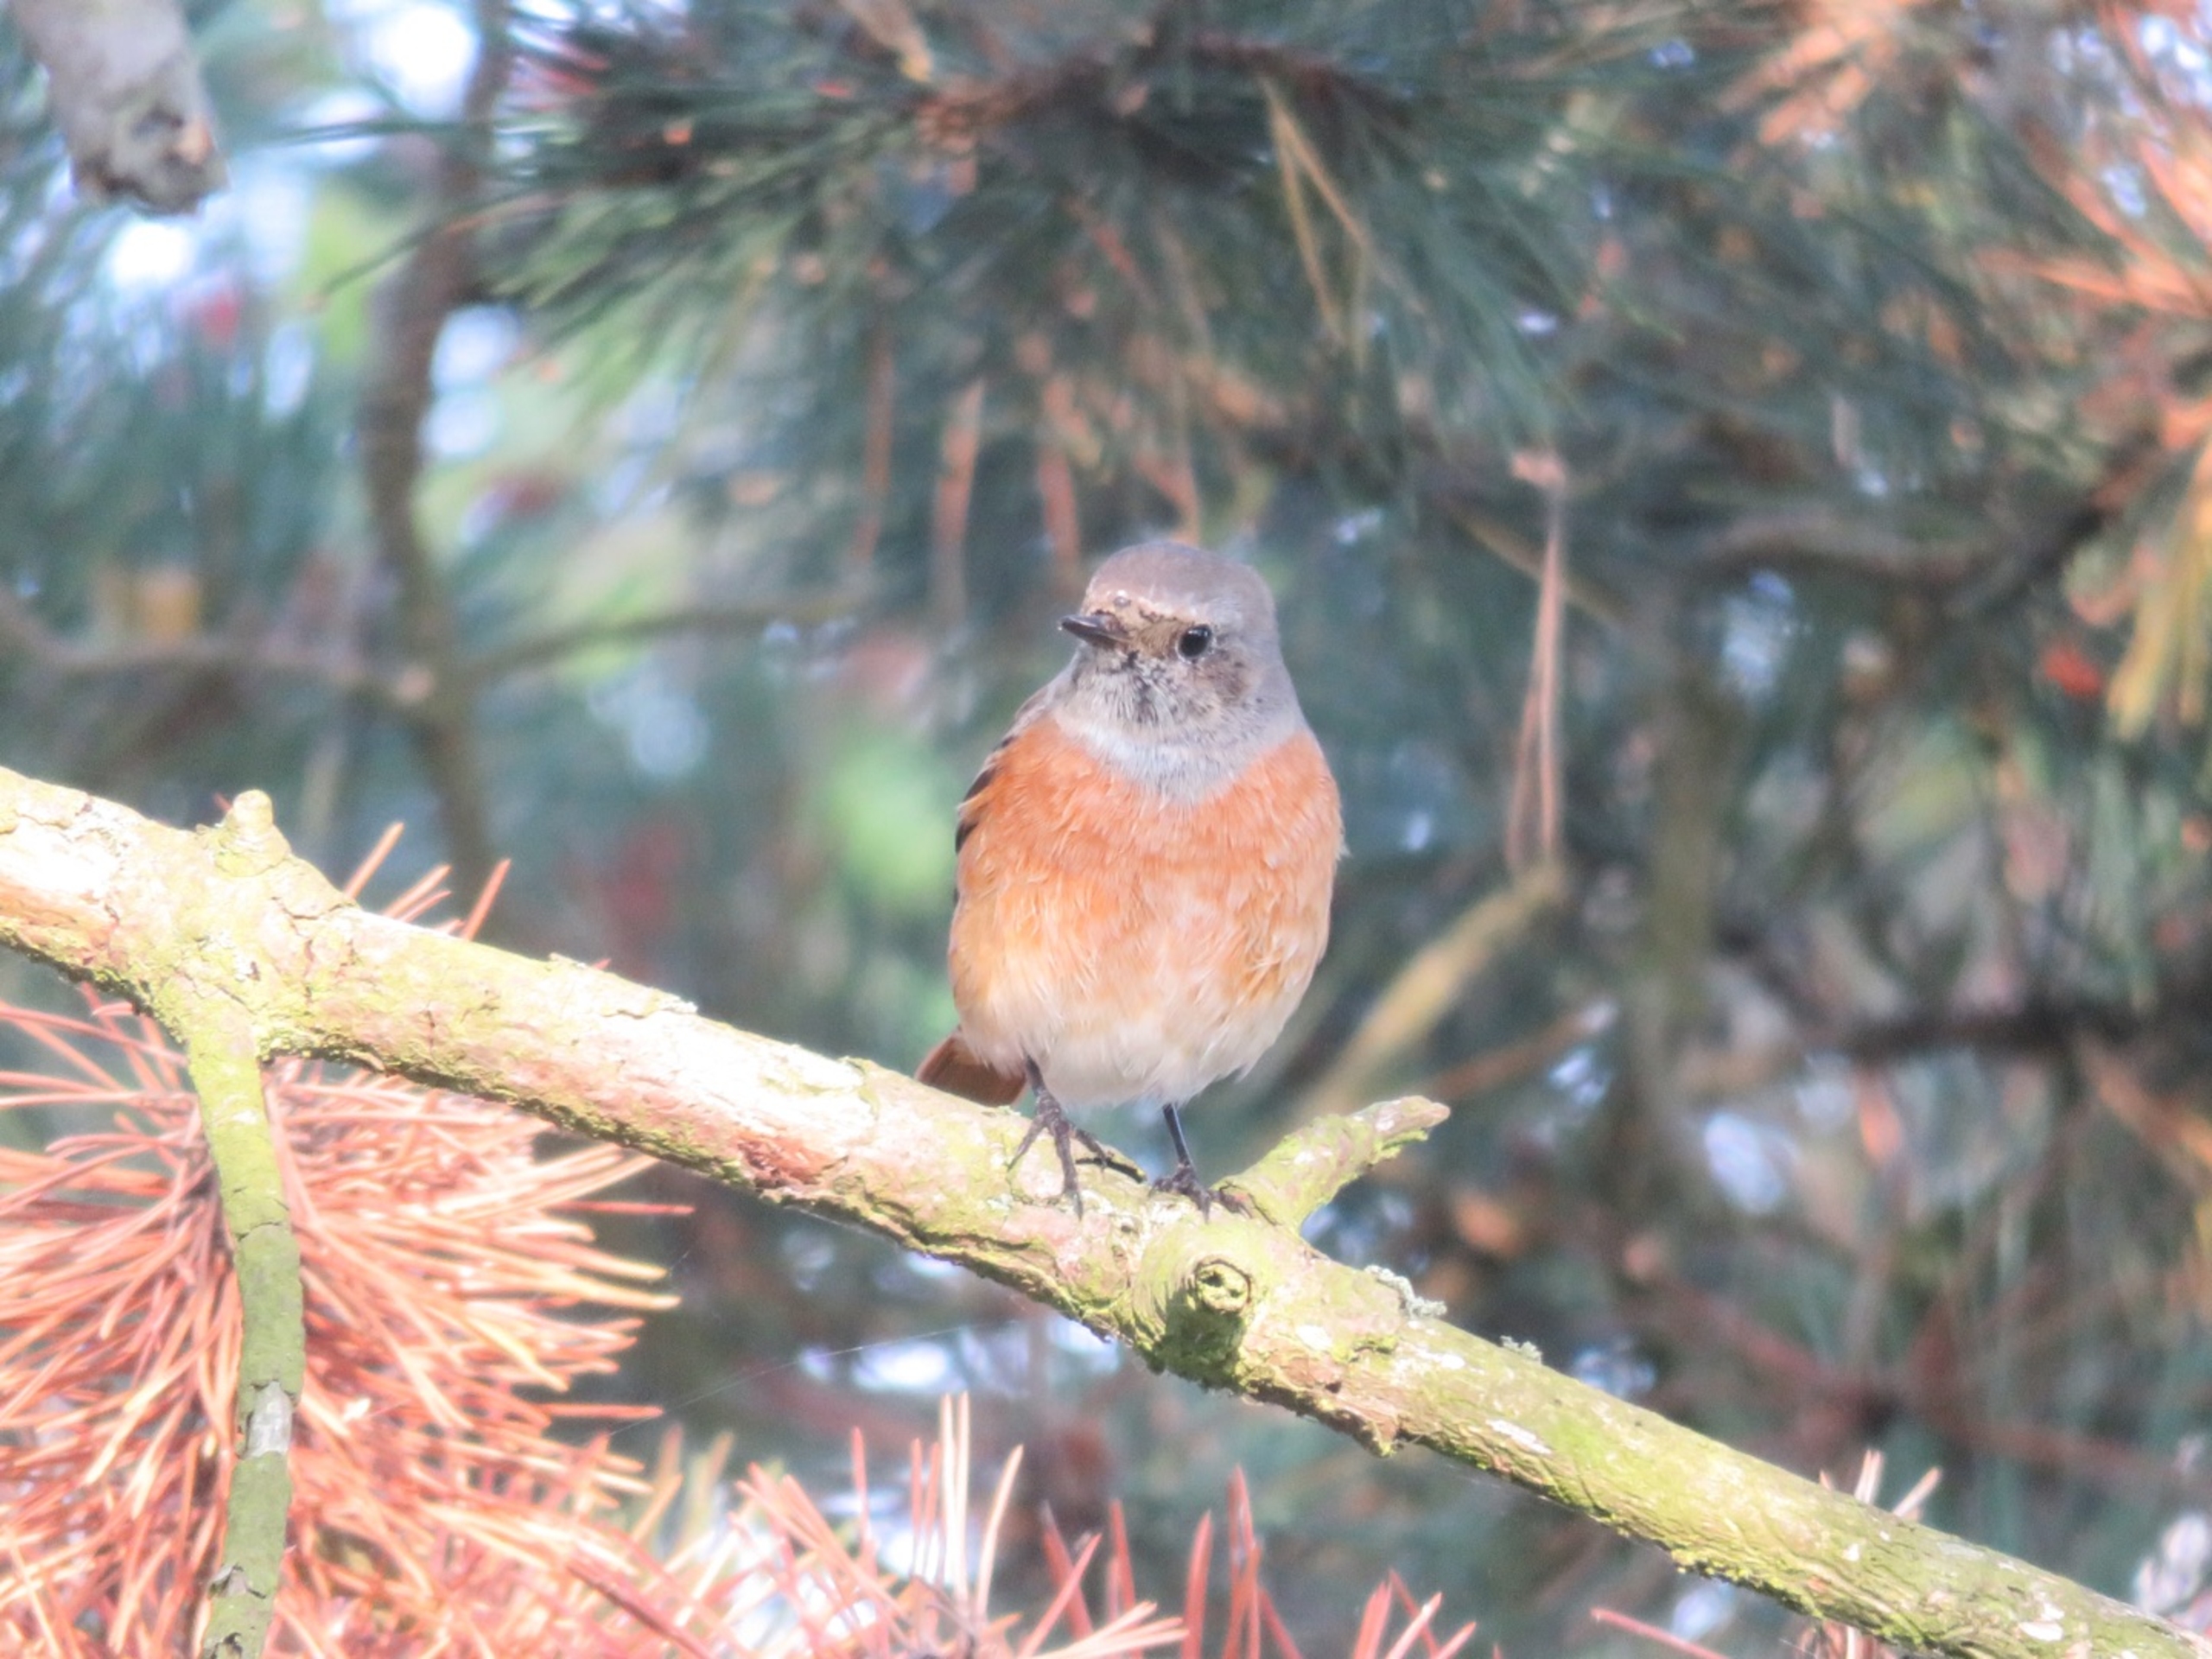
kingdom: Animalia
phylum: Chordata
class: Aves
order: Passeriformes
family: Muscicapidae
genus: Phoenicurus
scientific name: Phoenicurus phoenicurus
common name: Rødstjert
